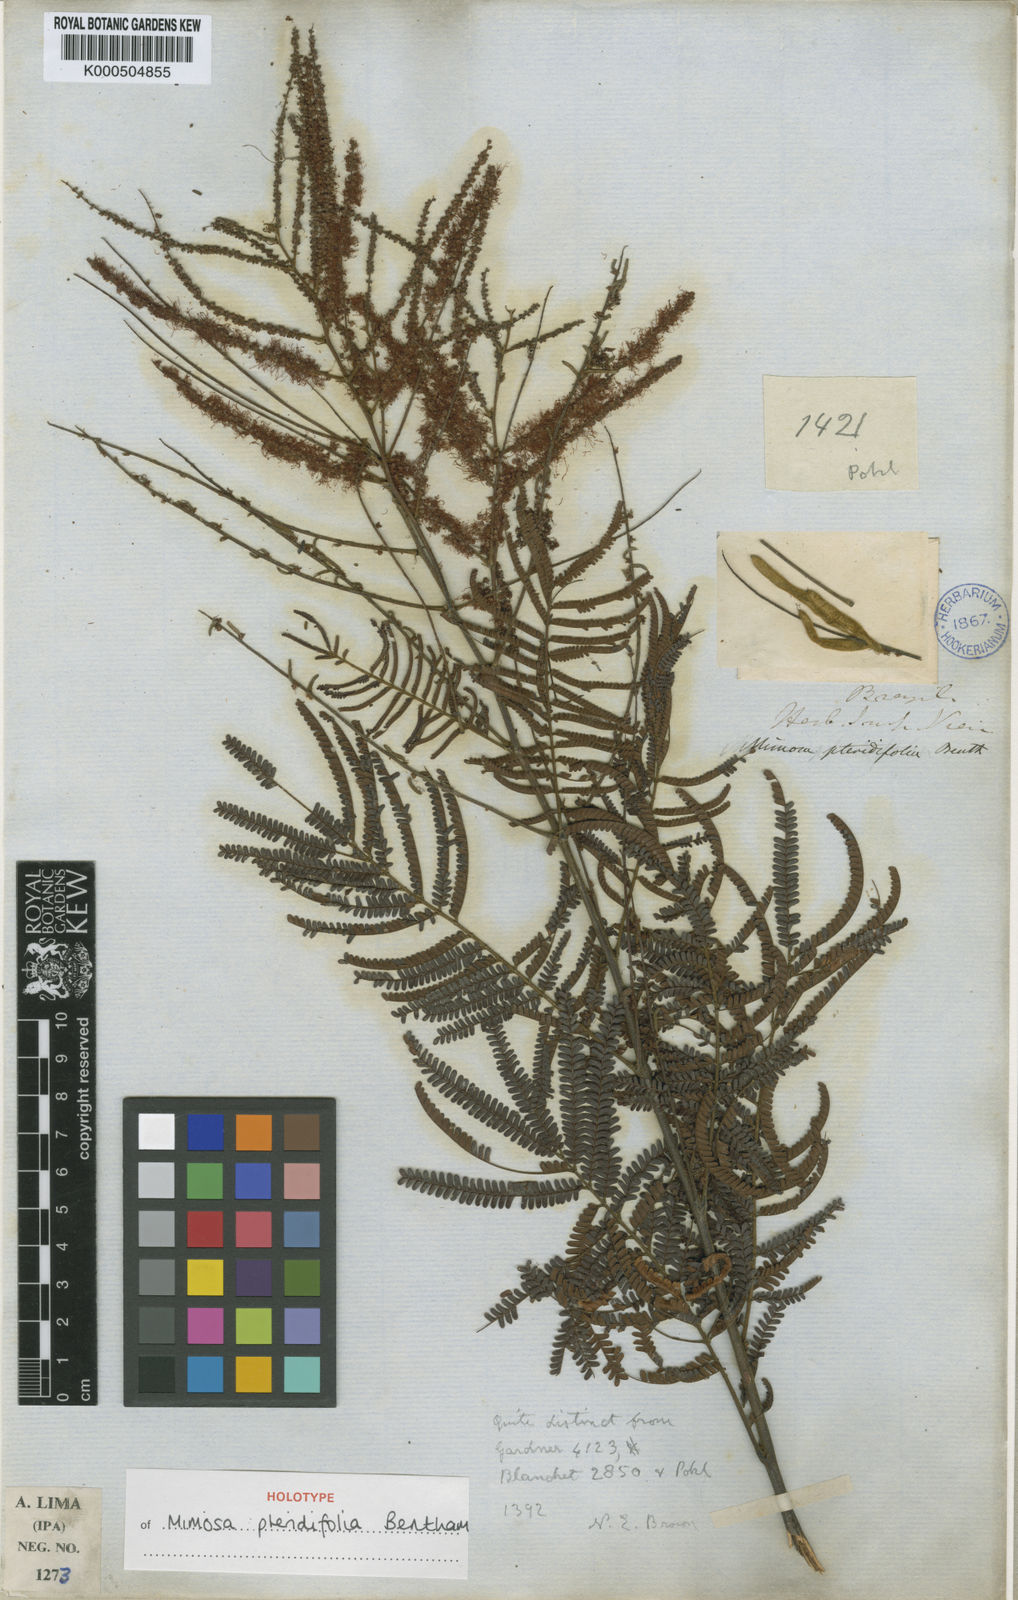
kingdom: Plantae
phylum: Tracheophyta
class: Magnoliopsida
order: Fabales
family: Fabaceae
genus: Mimosa
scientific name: Mimosa pteridifolia
